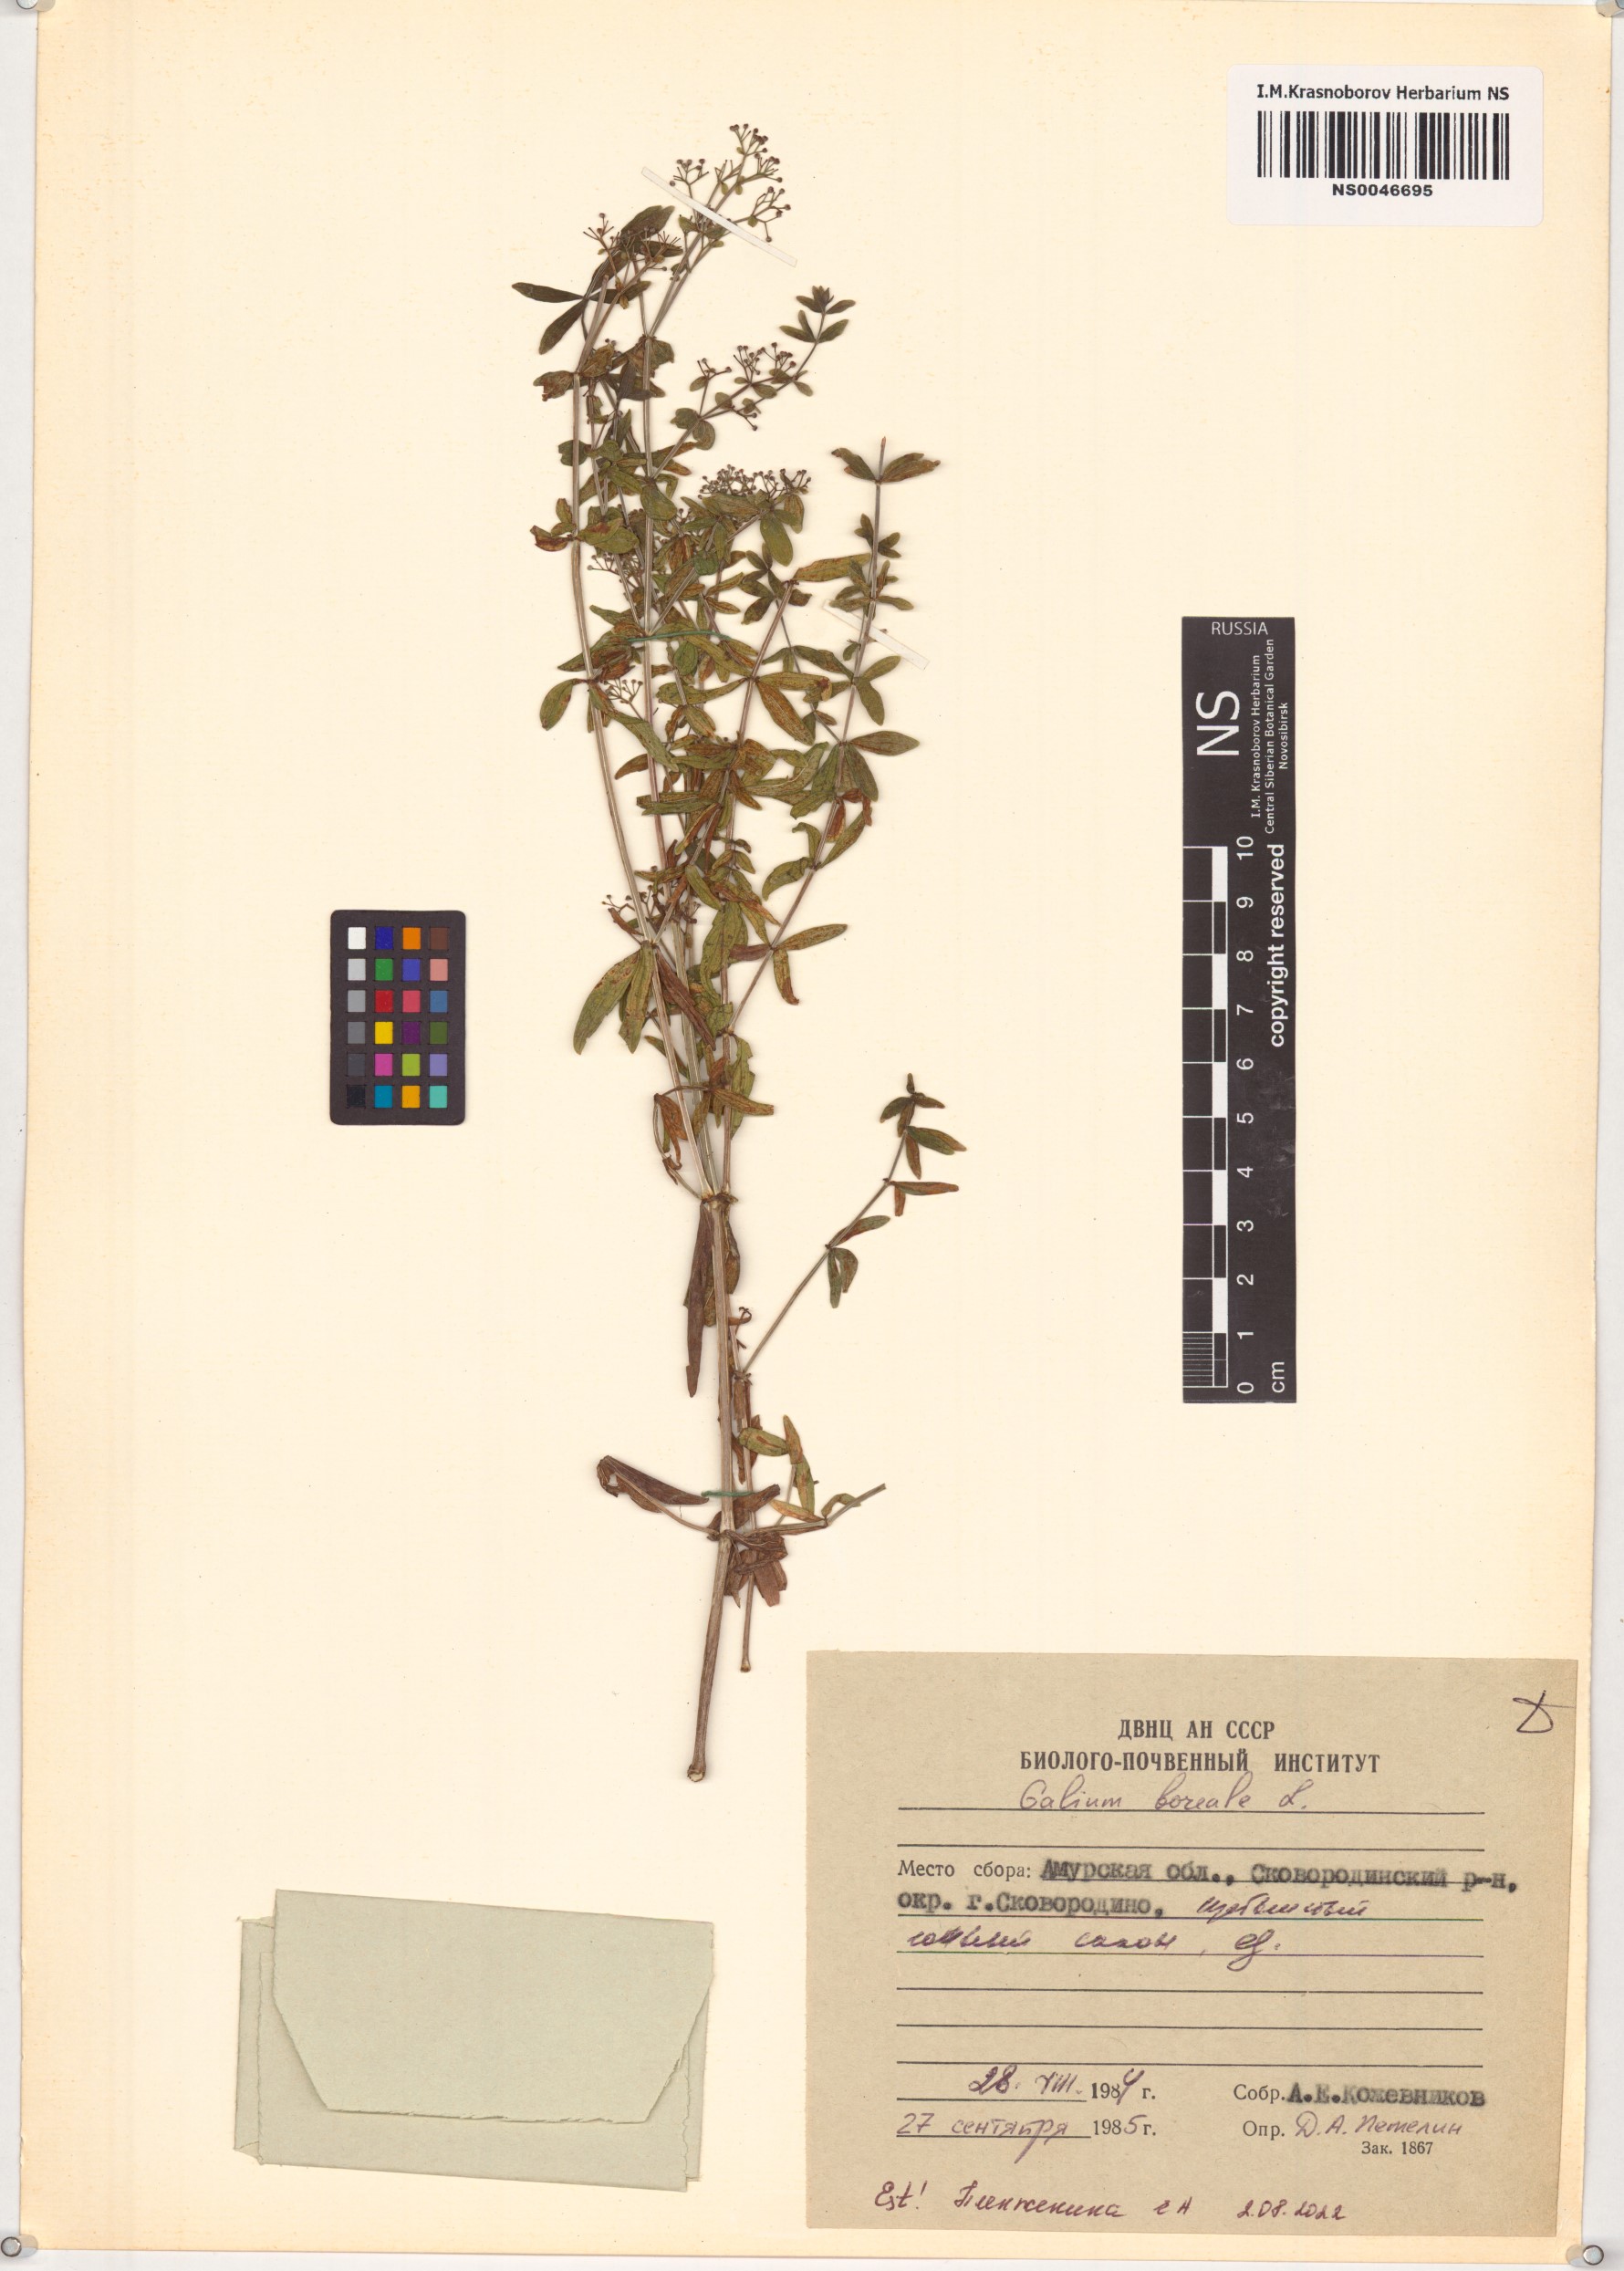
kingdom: Plantae
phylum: Tracheophyta
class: Magnoliopsida
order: Gentianales
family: Rubiaceae
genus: Galium
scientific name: Galium boreale
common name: Northern bedstraw
